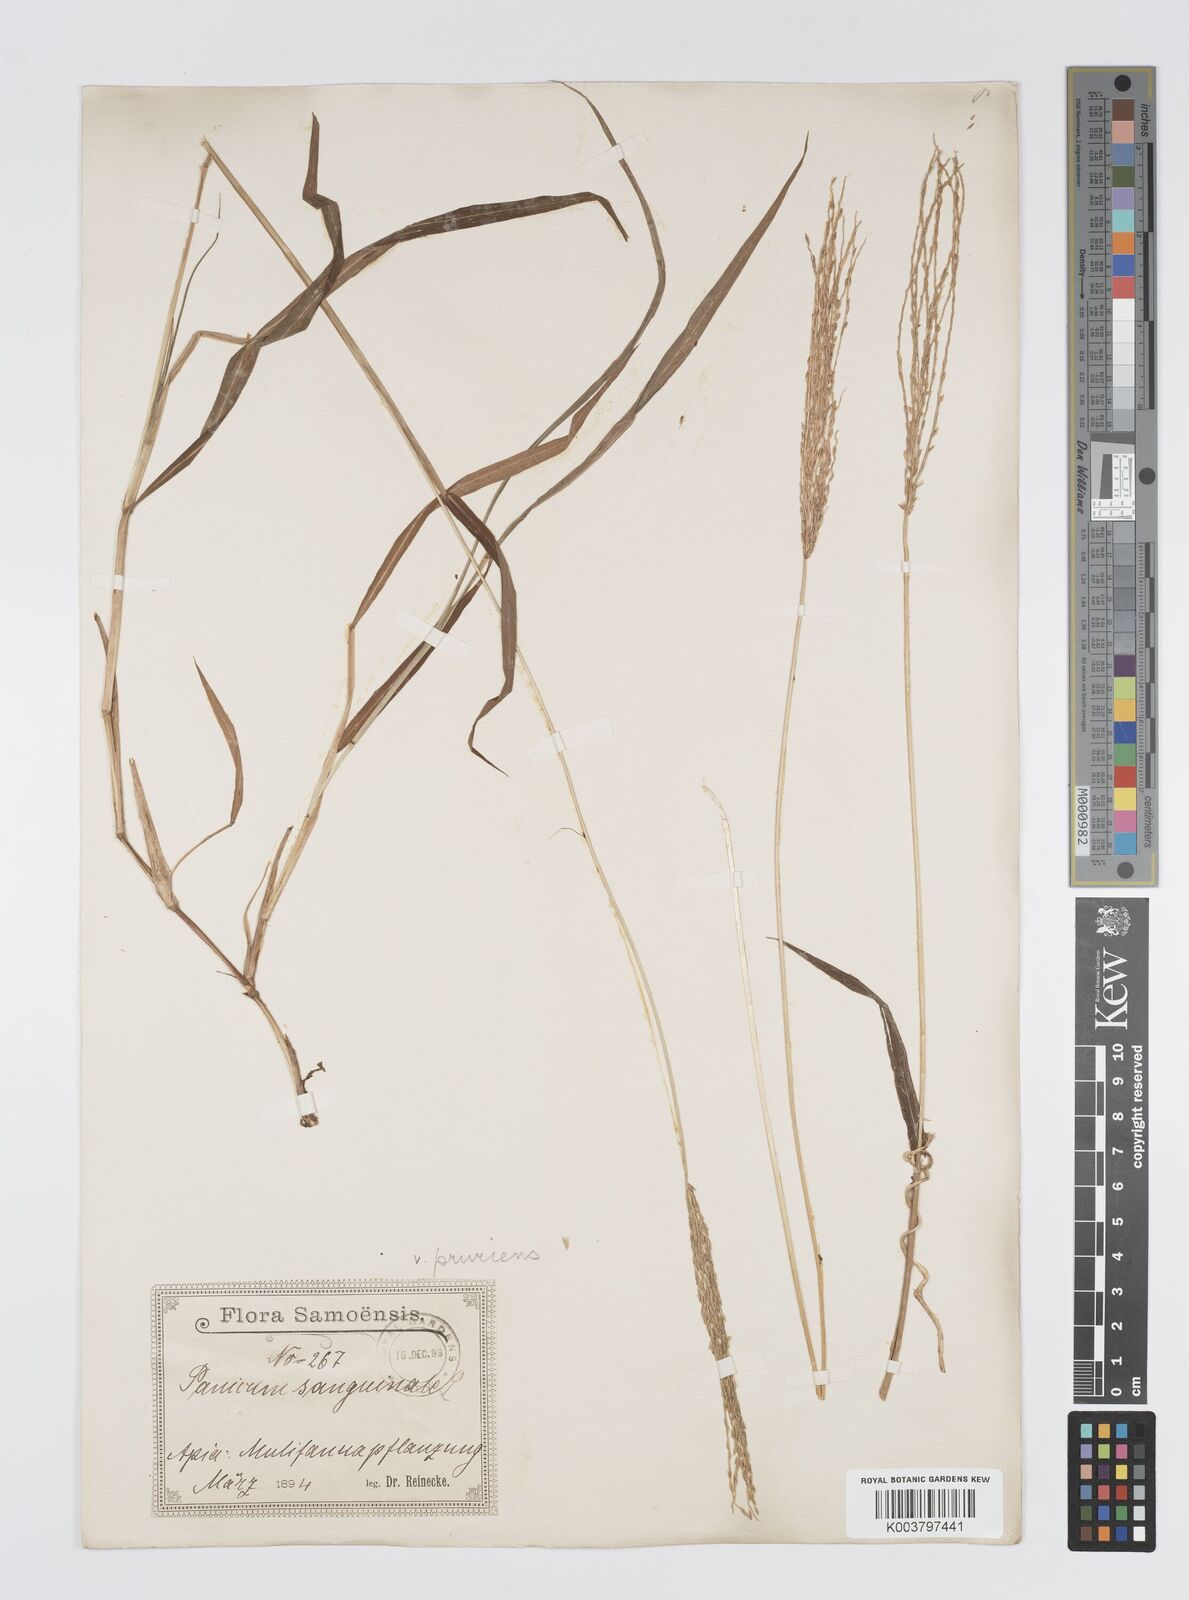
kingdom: Plantae
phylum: Tracheophyta
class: Liliopsida
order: Poales
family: Poaceae
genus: Digitaria
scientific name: Digitaria setigera
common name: East indian crabgrass
